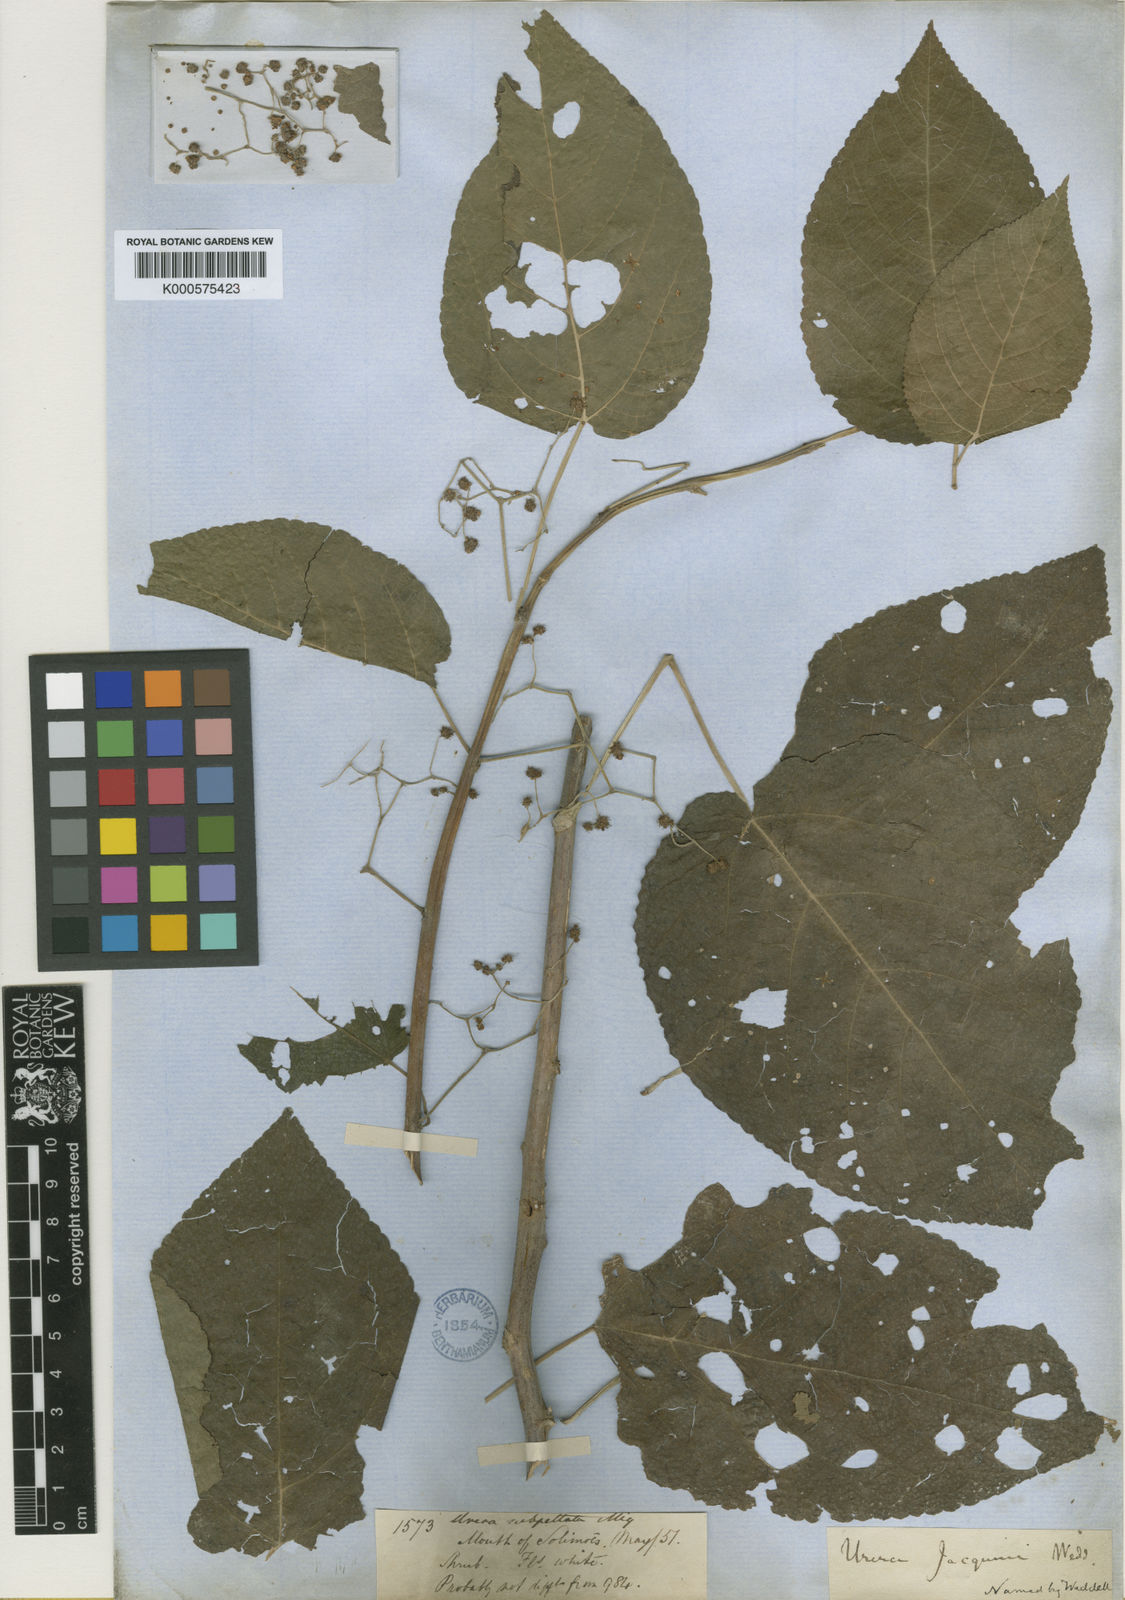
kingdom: Plantae
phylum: Tracheophyta
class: Magnoliopsida
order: Rosales
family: Urticaceae
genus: Urera
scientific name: Urera caracasana
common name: Flameberry
